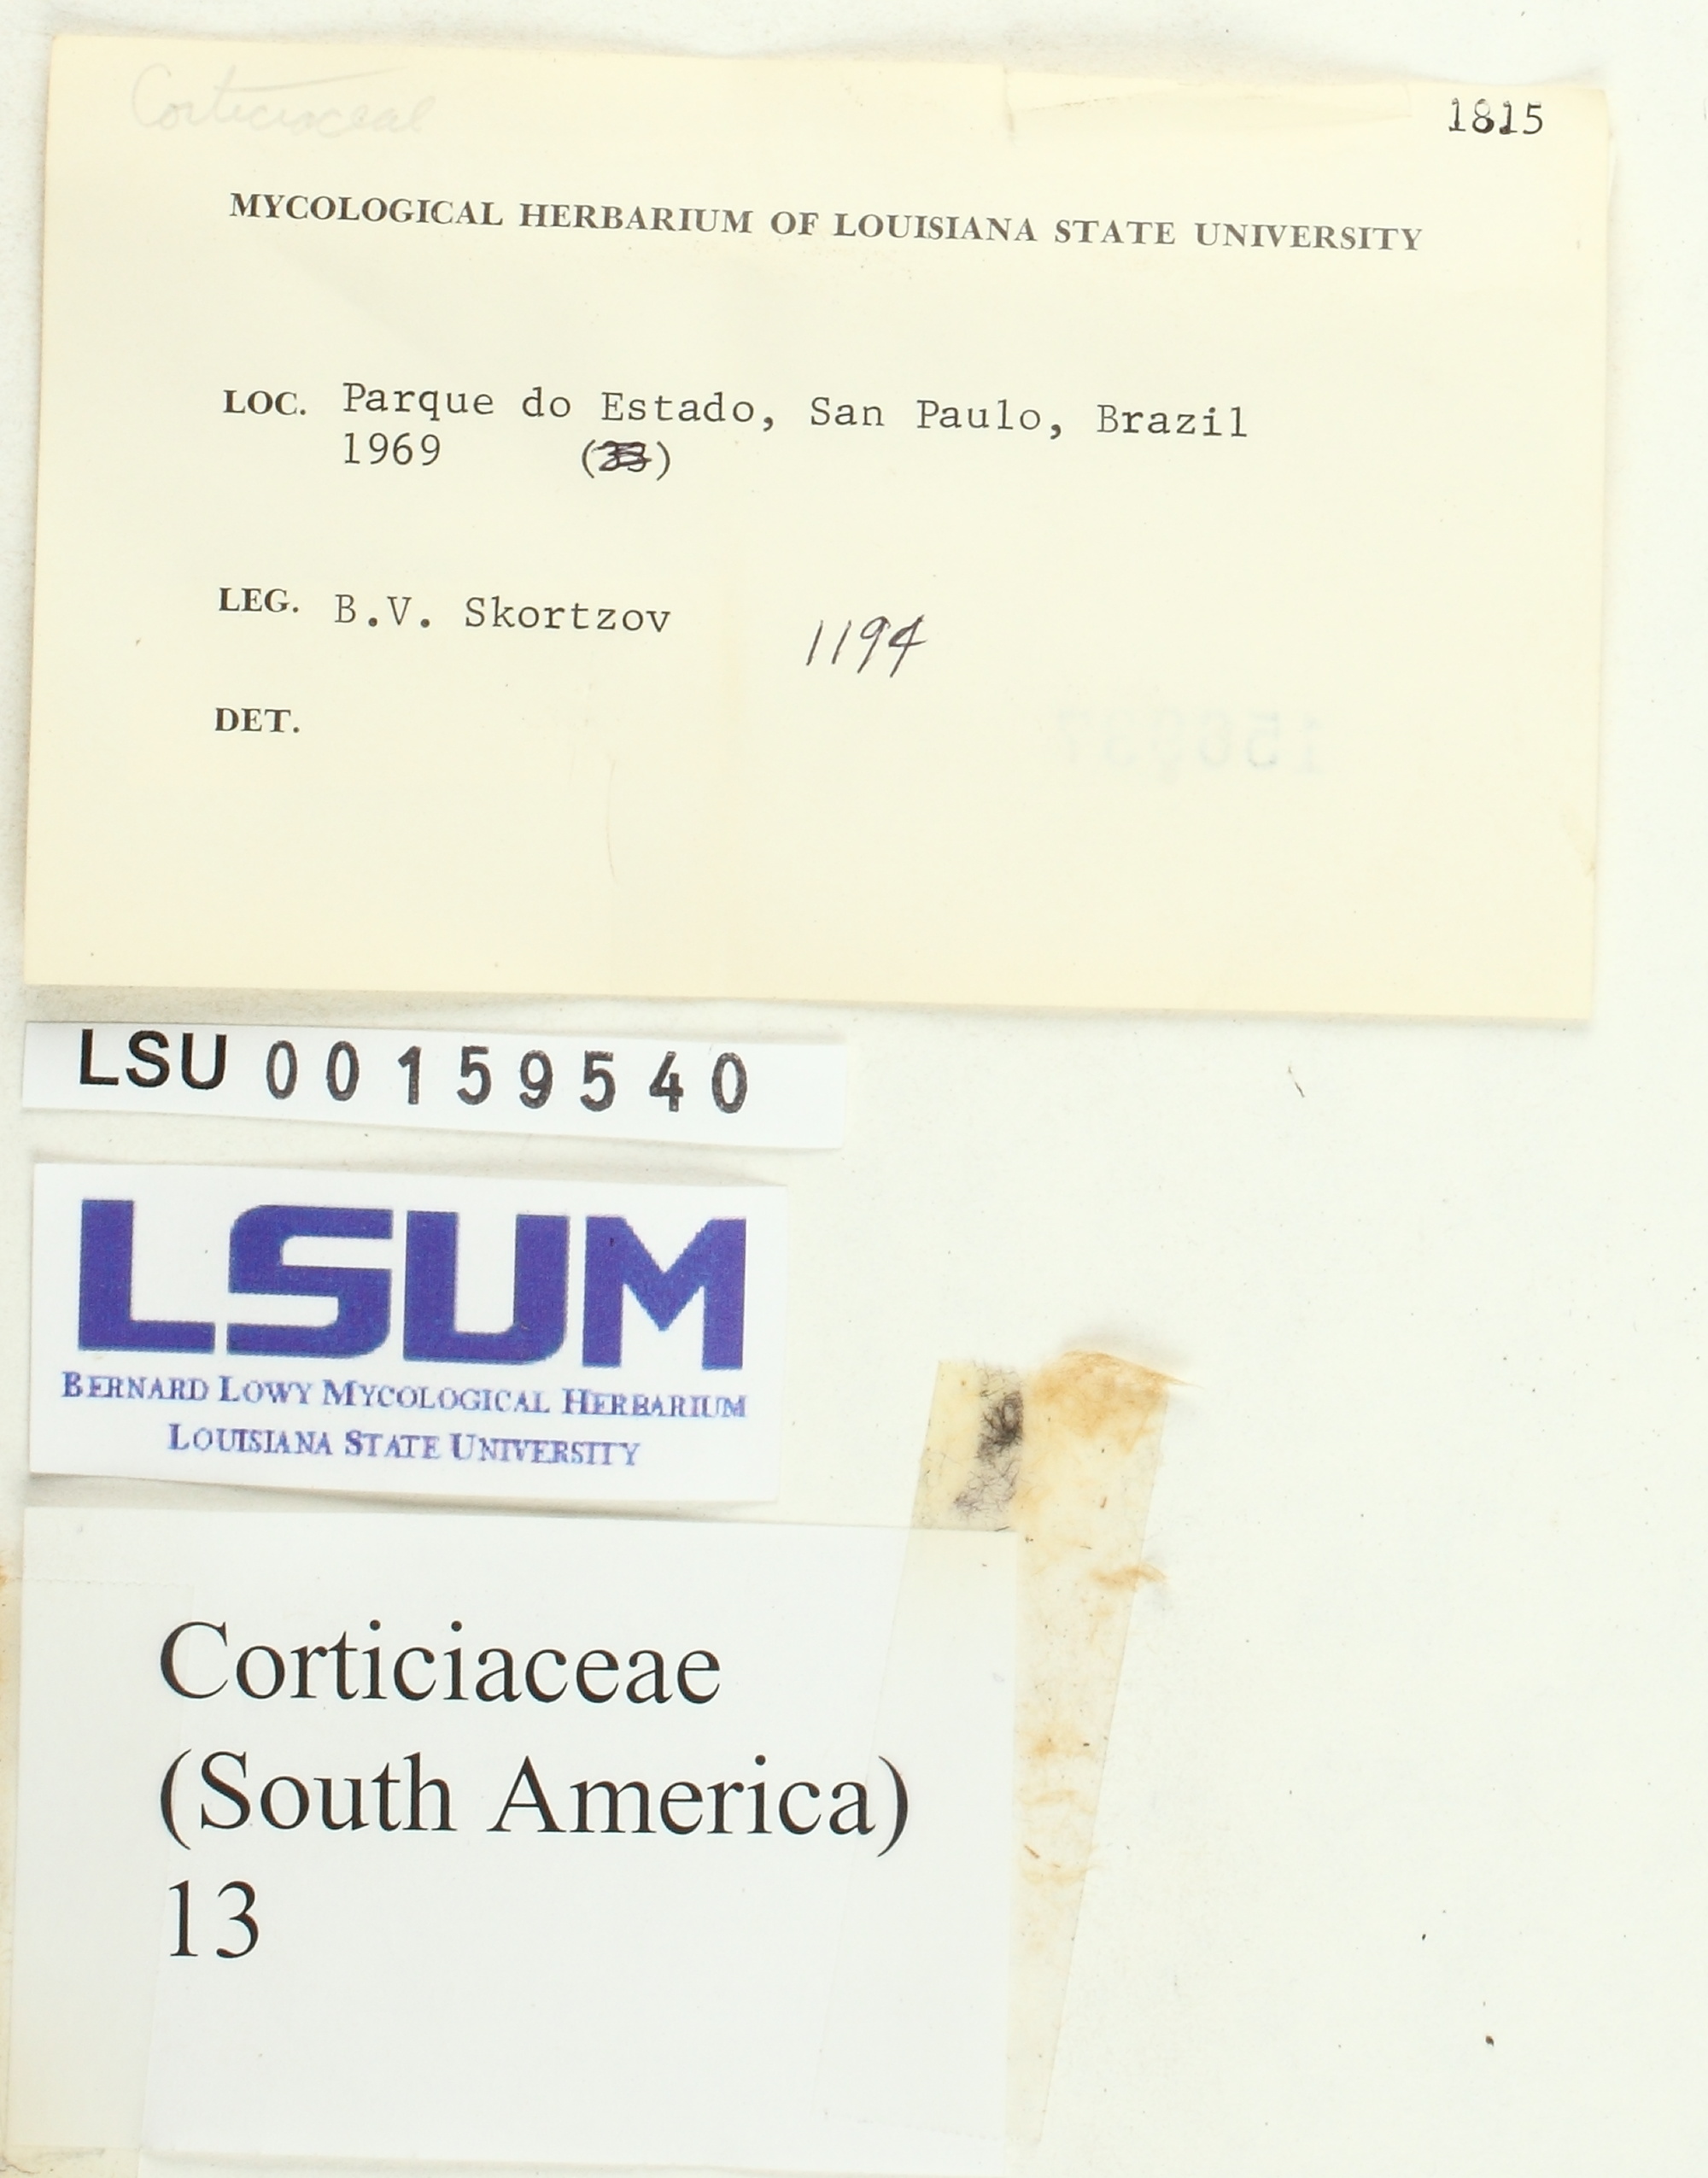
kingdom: Fungi
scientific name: Fungi
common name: Fungi
